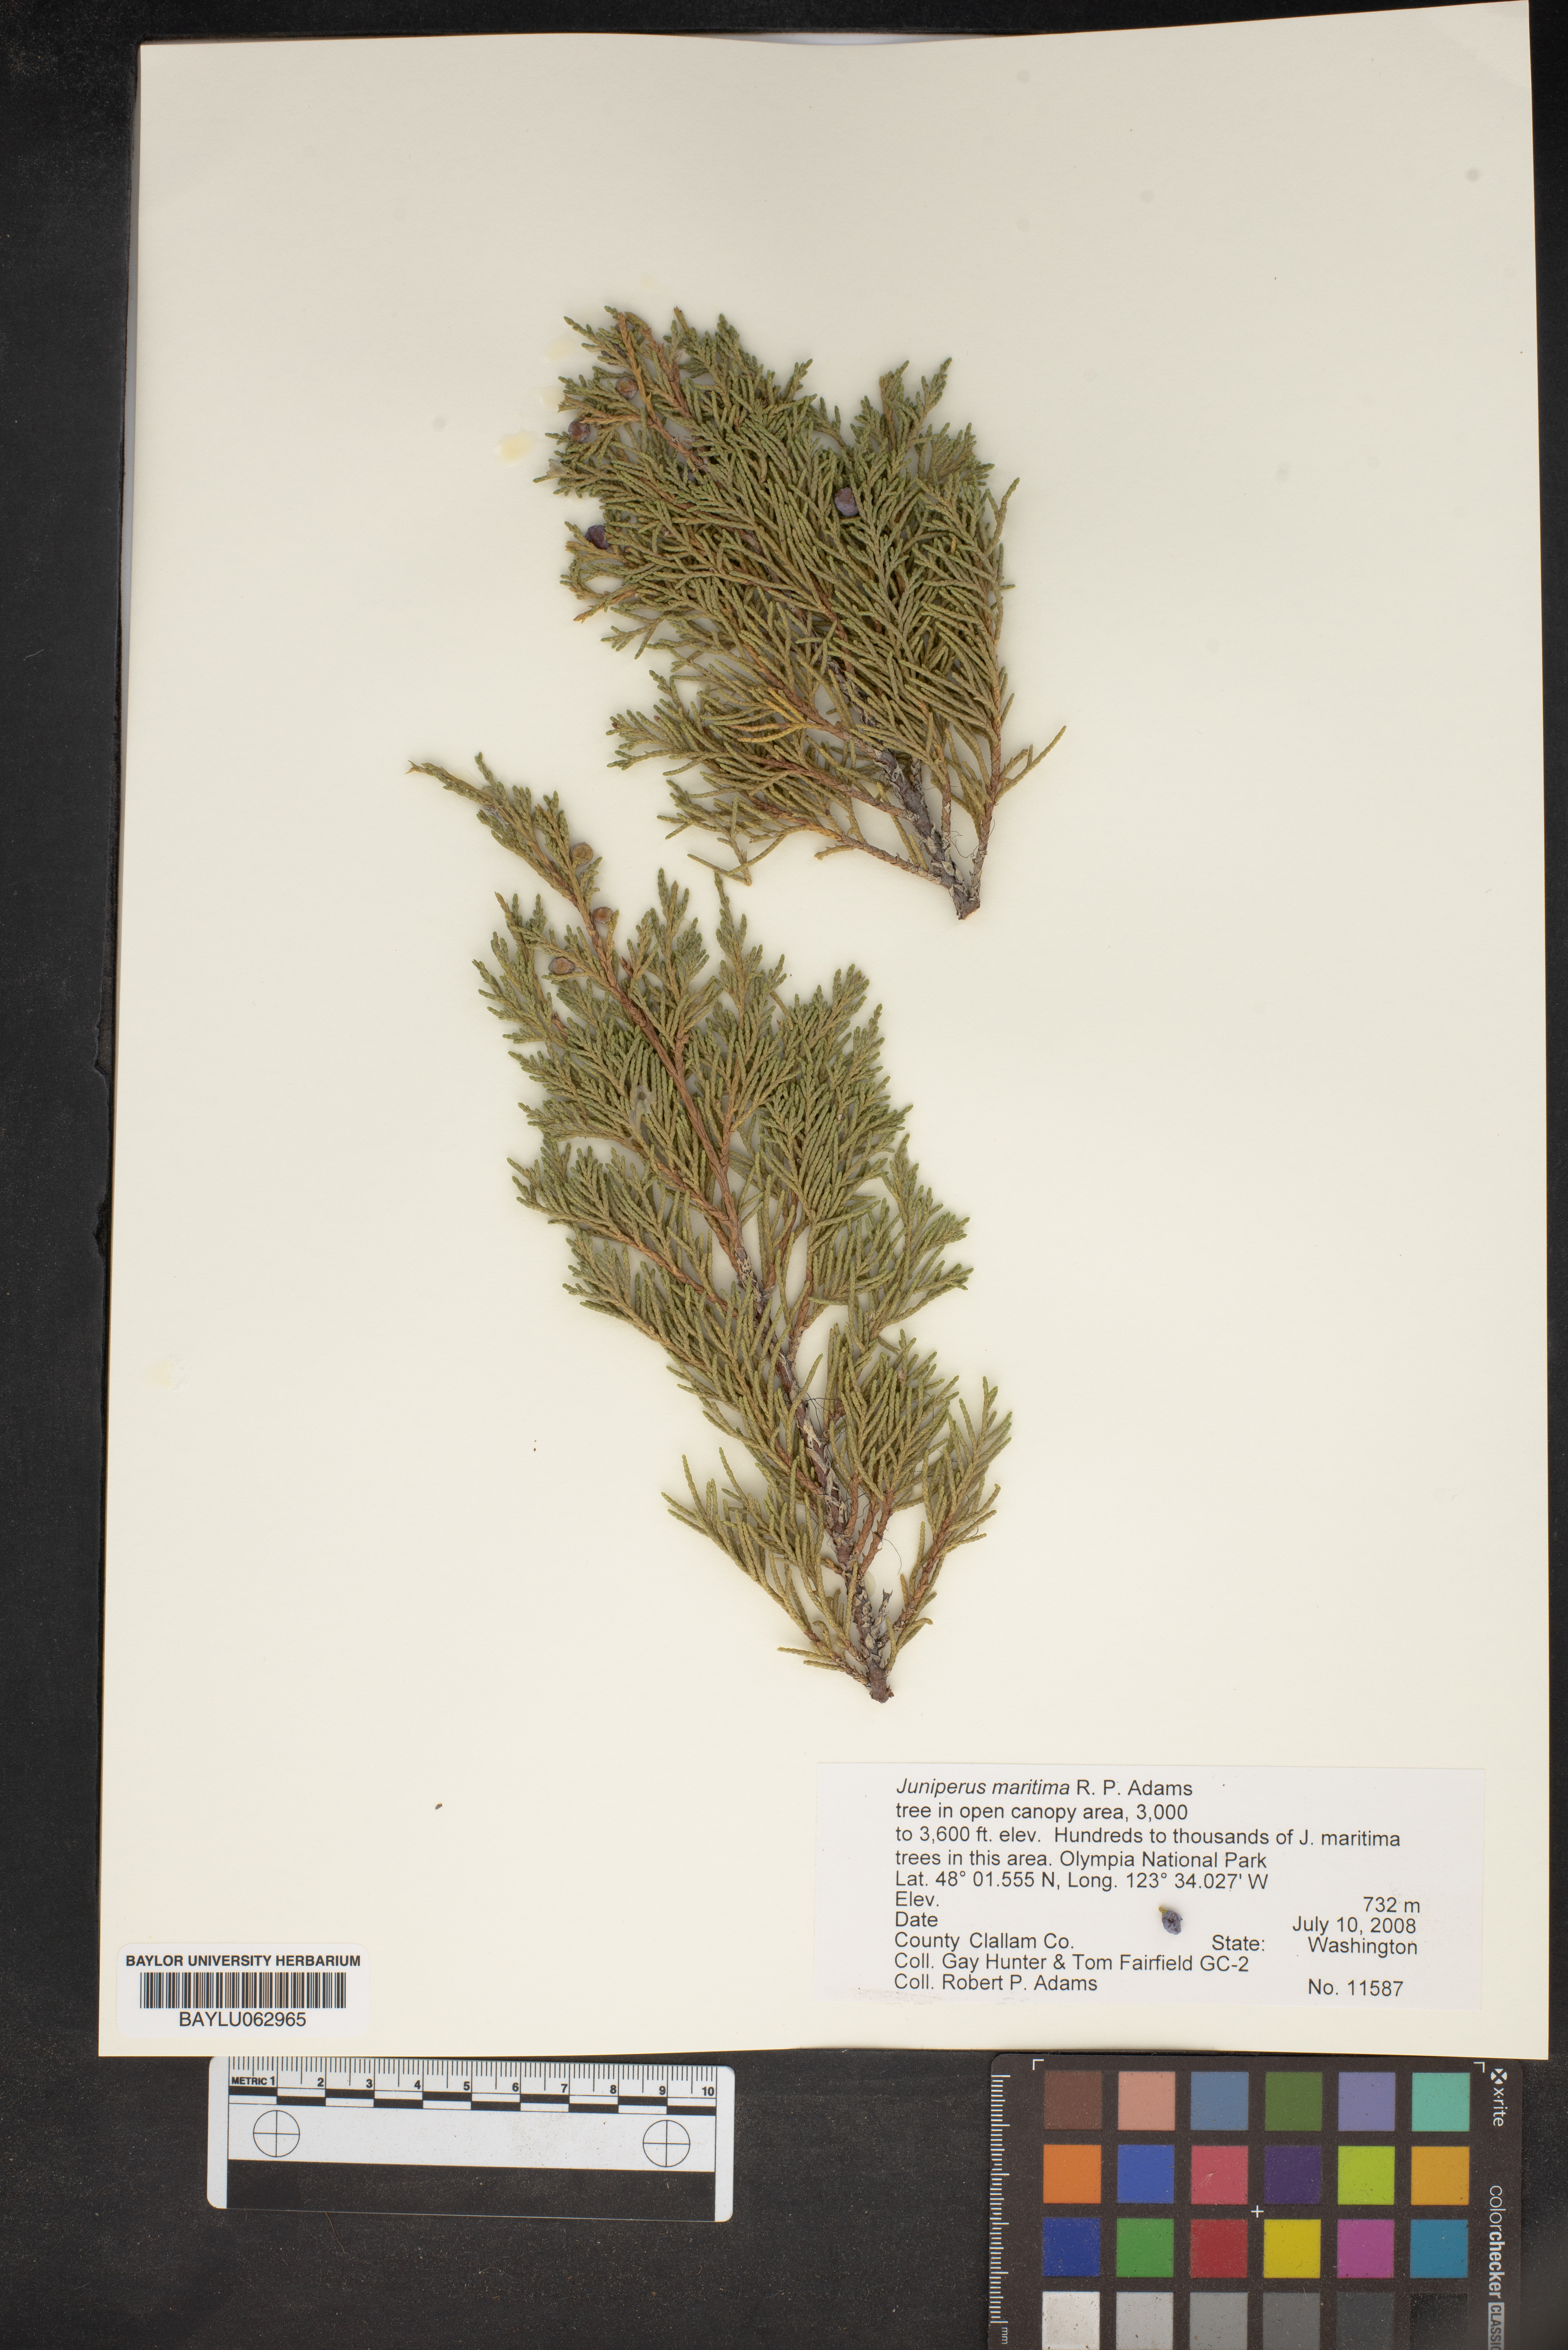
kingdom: Plantae
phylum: Tracheophyta
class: Pinopsida
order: Pinales
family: Cupressaceae
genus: Juniperus
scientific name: Juniperus scopulorum
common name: Rocky mountain juniper
